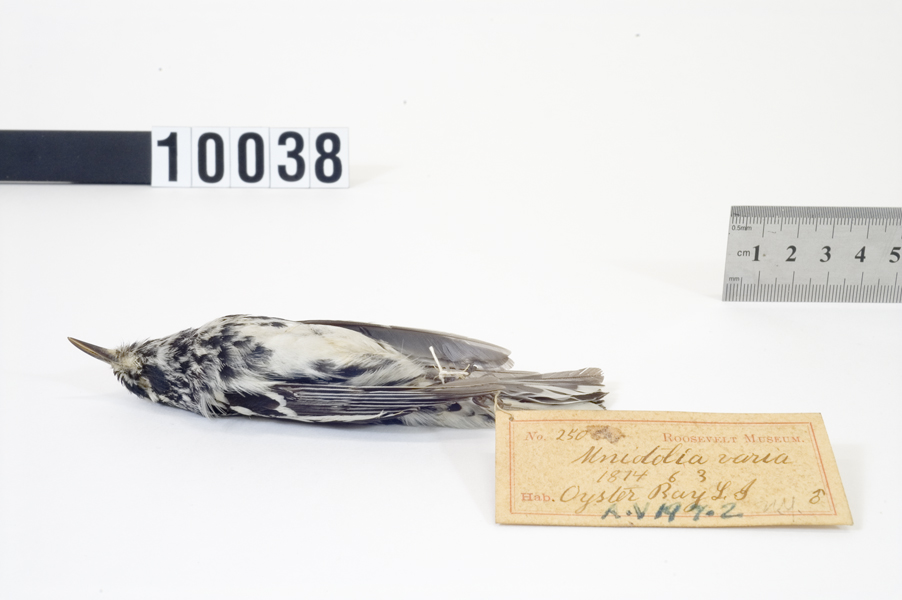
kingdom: Animalia
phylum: Chordata
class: Aves
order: Passeriformes
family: Parulidae
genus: Mniotilta
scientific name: Mniotilta varia
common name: Black-and-white warbler
